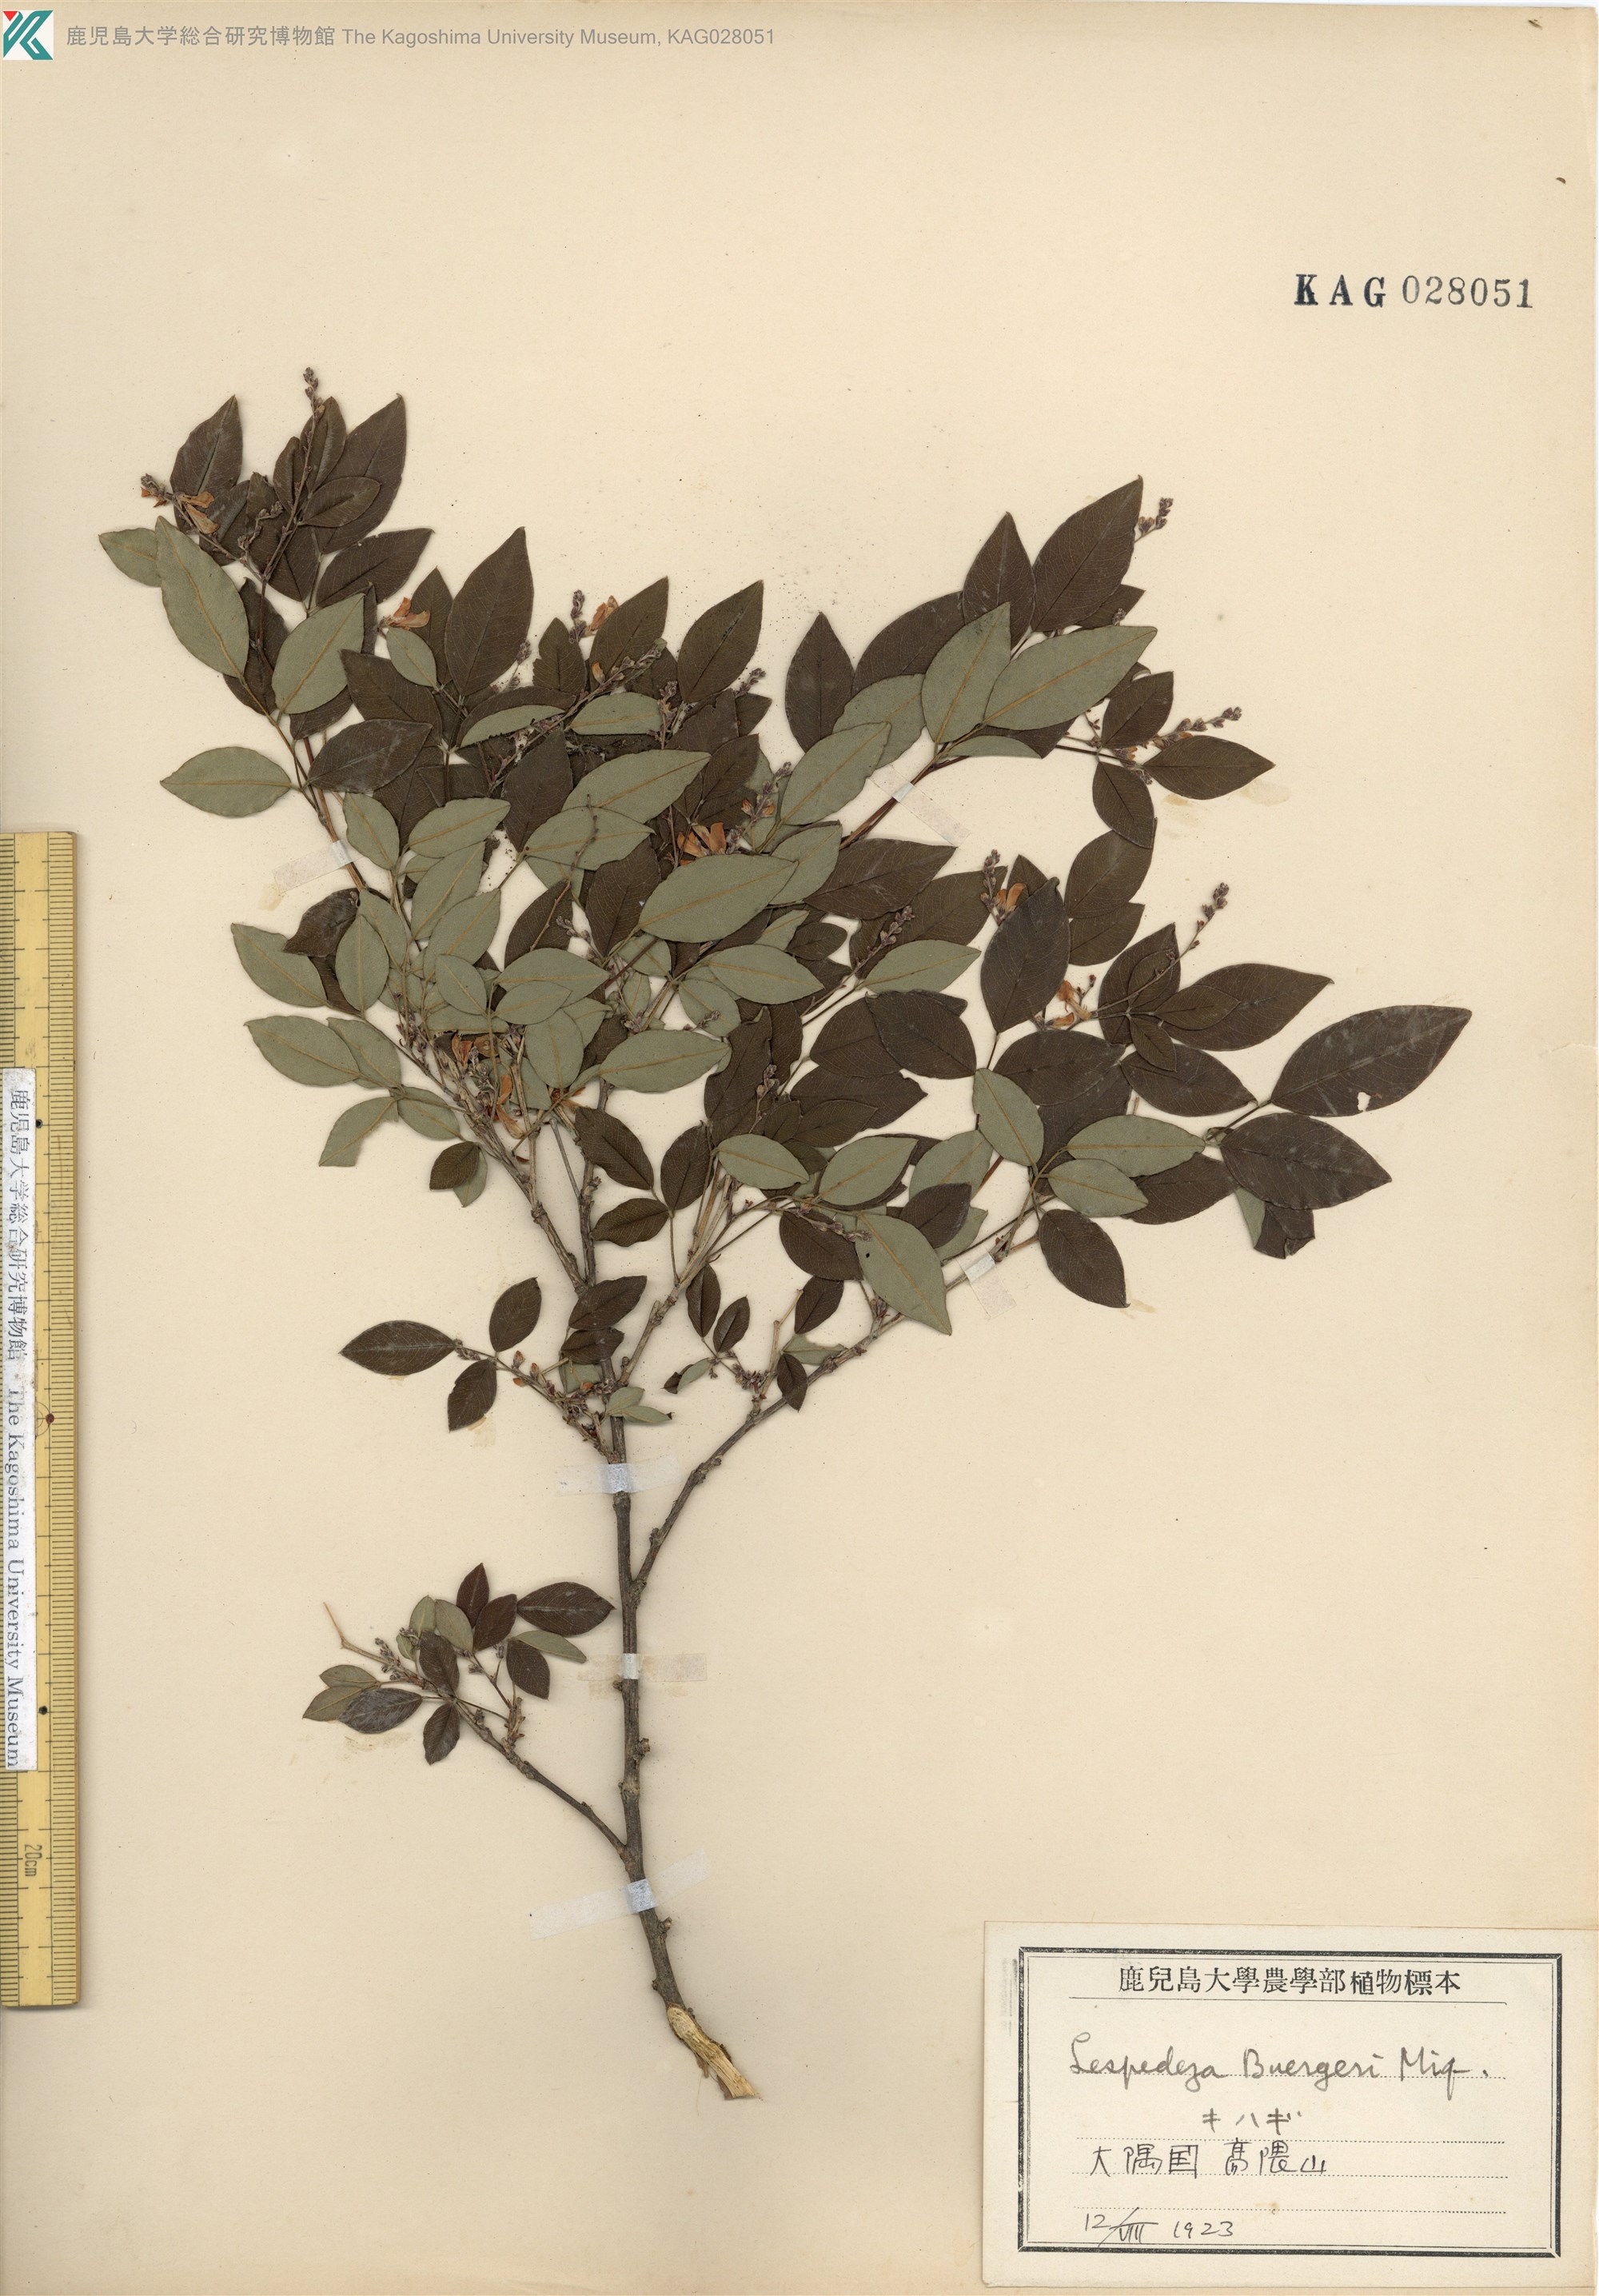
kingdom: Plantae
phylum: Tracheophyta
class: Magnoliopsida
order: Fabales
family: Fabaceae
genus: Lespedeza
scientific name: Lespedeza buergeri
